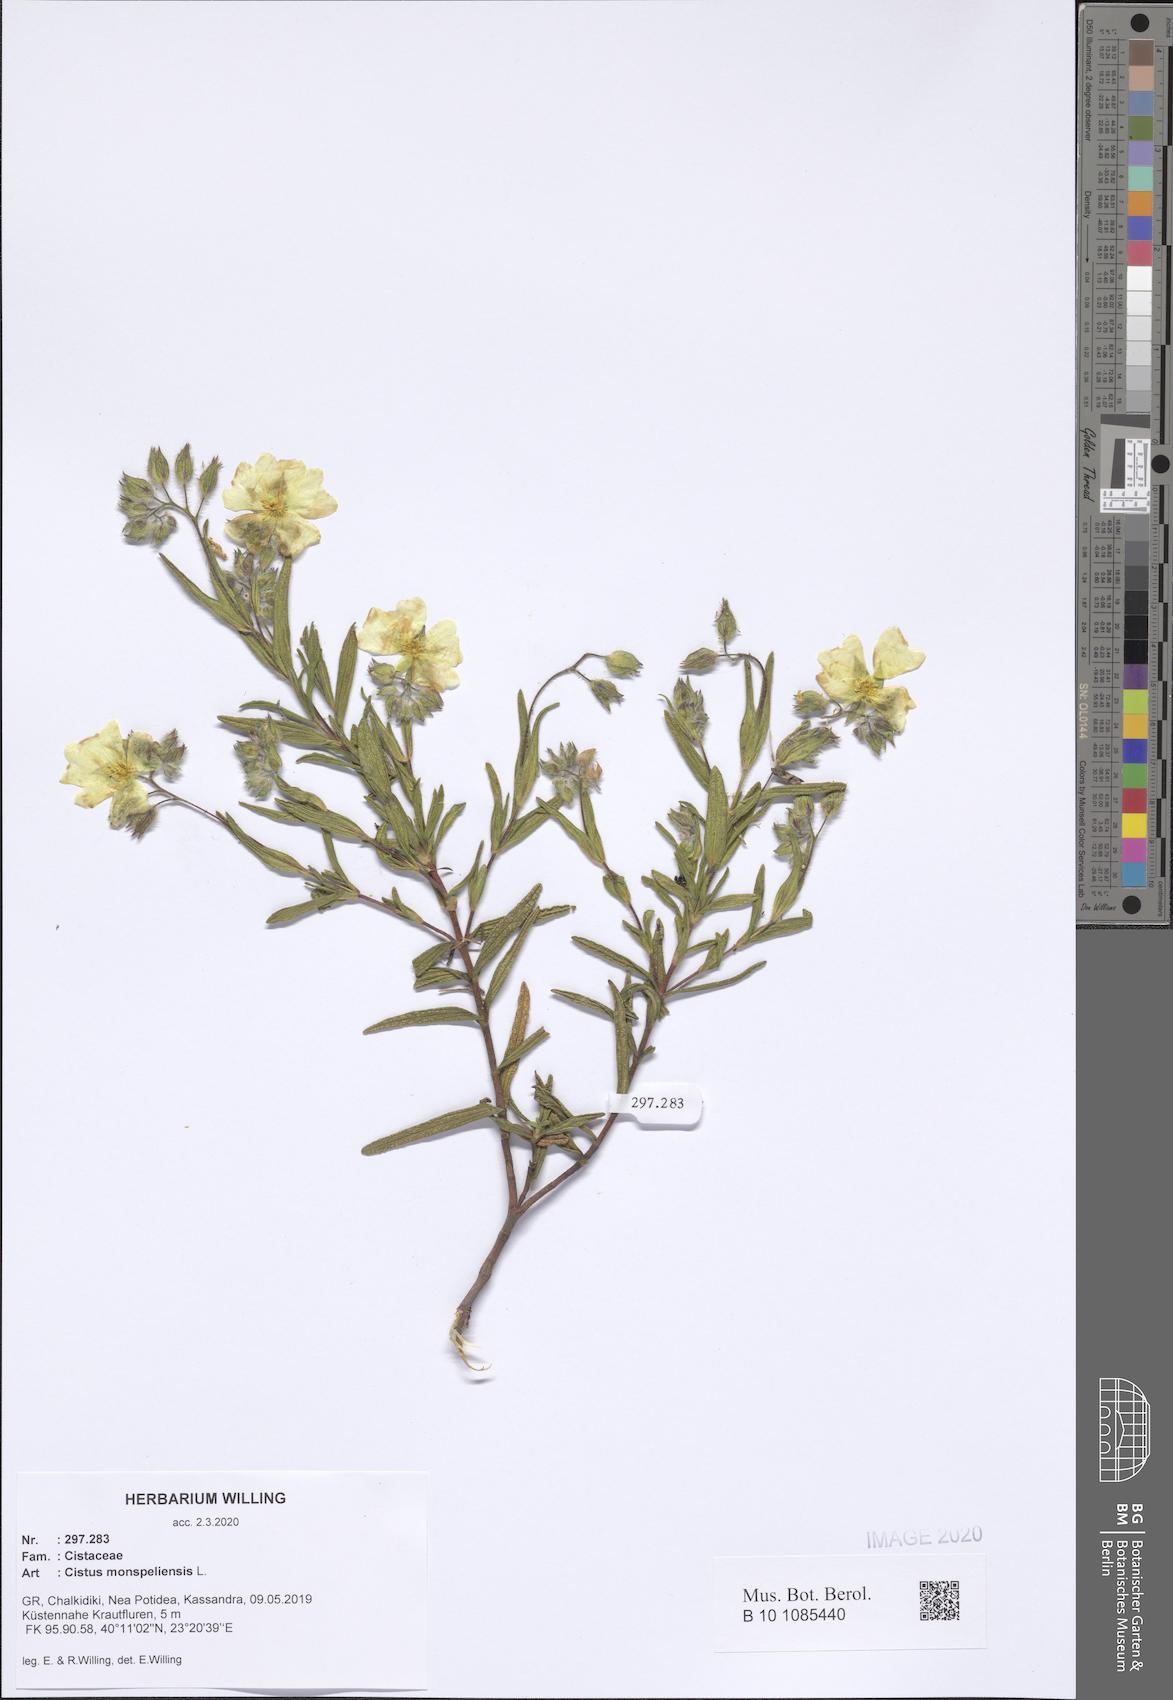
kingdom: Plantae
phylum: Tracheophyta
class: Magnoliopsida
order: Malvales
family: Cistaceae
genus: Cistus
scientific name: Cistus monspeliensis
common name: Montpelier cistus
